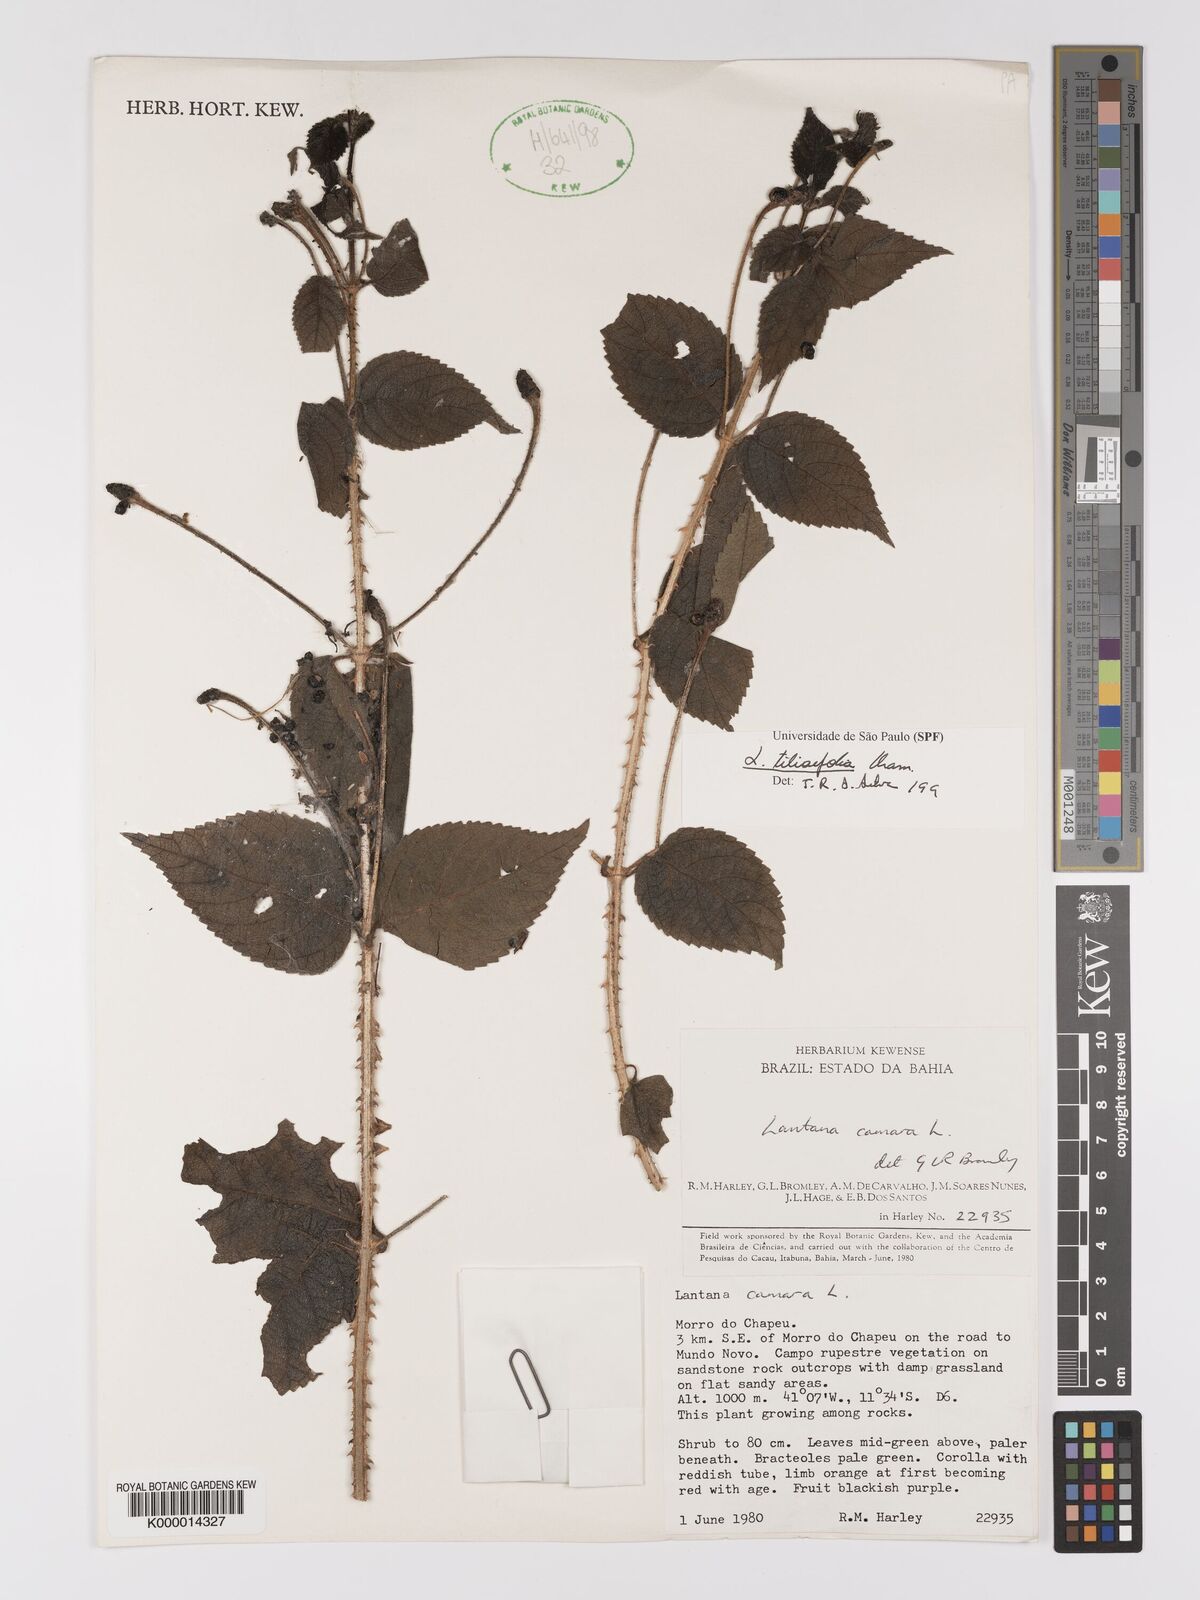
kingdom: Plantae
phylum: Tracheophyta
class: Magnoliopsida
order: Lamiales
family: Verbenaceae
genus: Lantana
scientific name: Lantana
